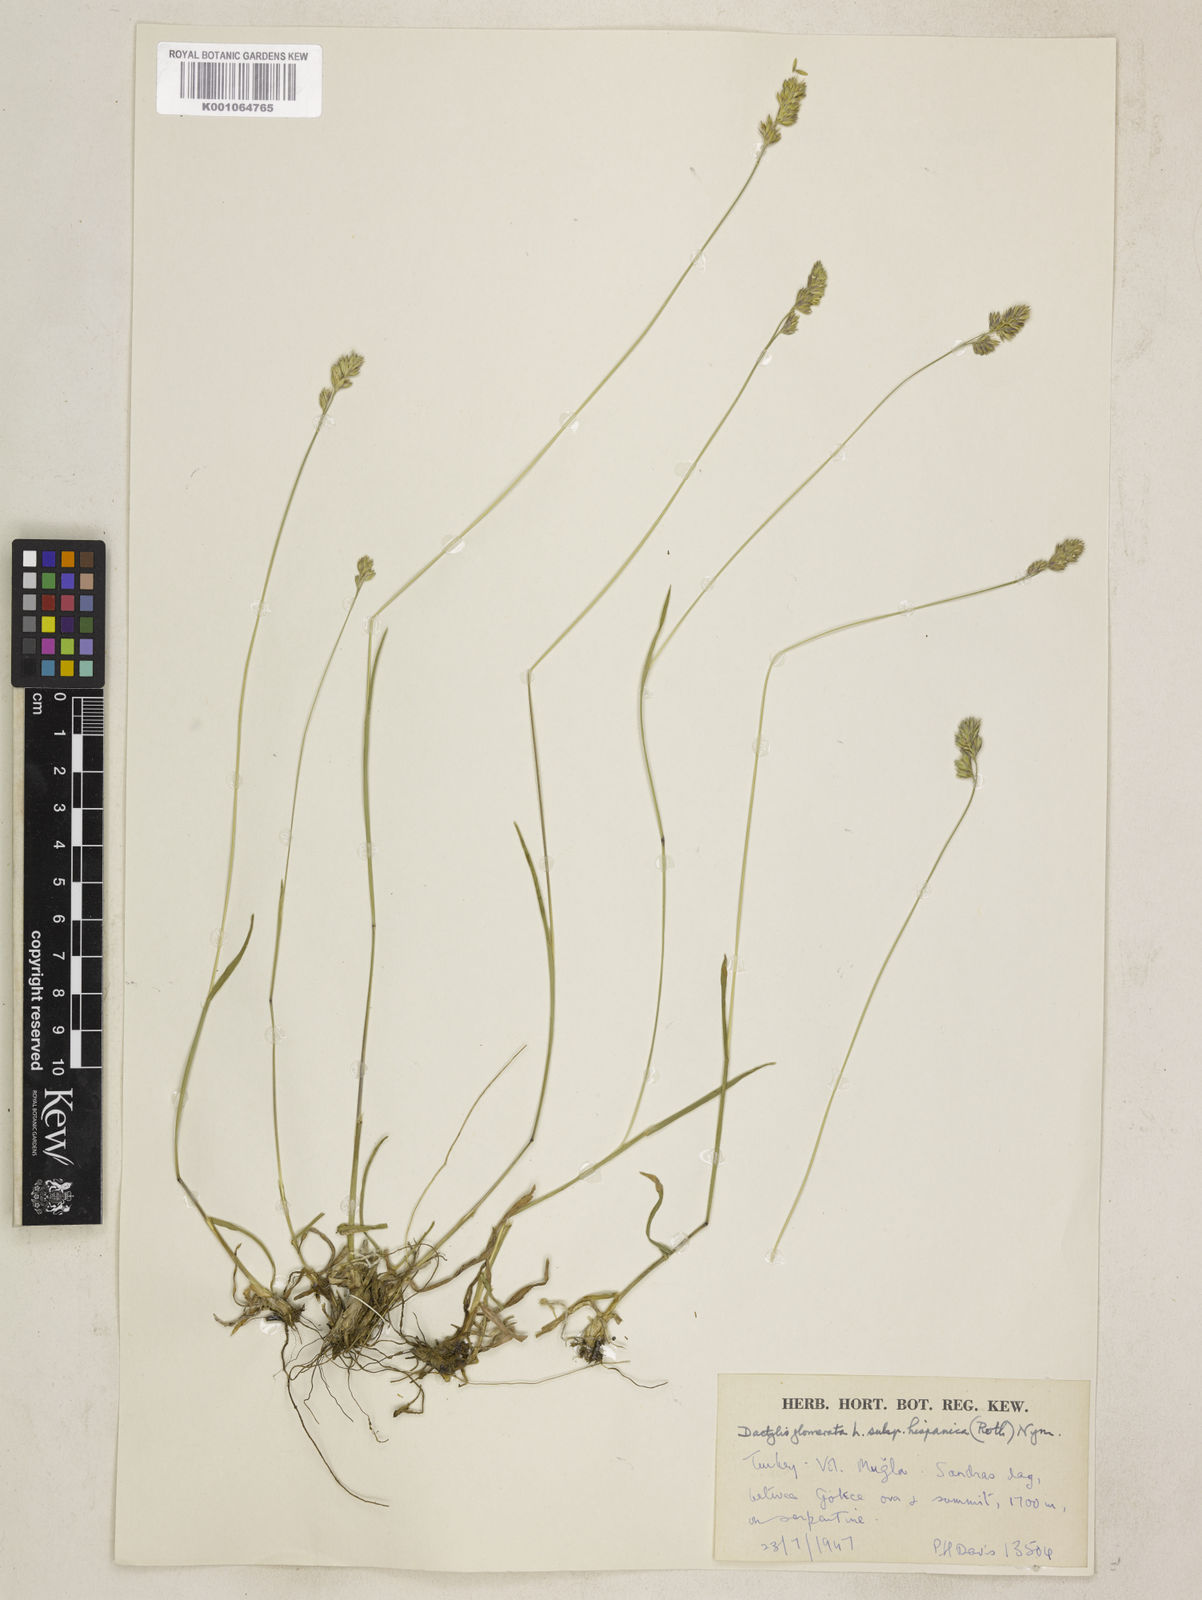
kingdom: Plantae
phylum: Tracheophyta
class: Liliopsida
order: Poales
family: Poaceae
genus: Dactylis
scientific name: Dactylis glomerata
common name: Orchardgrass
